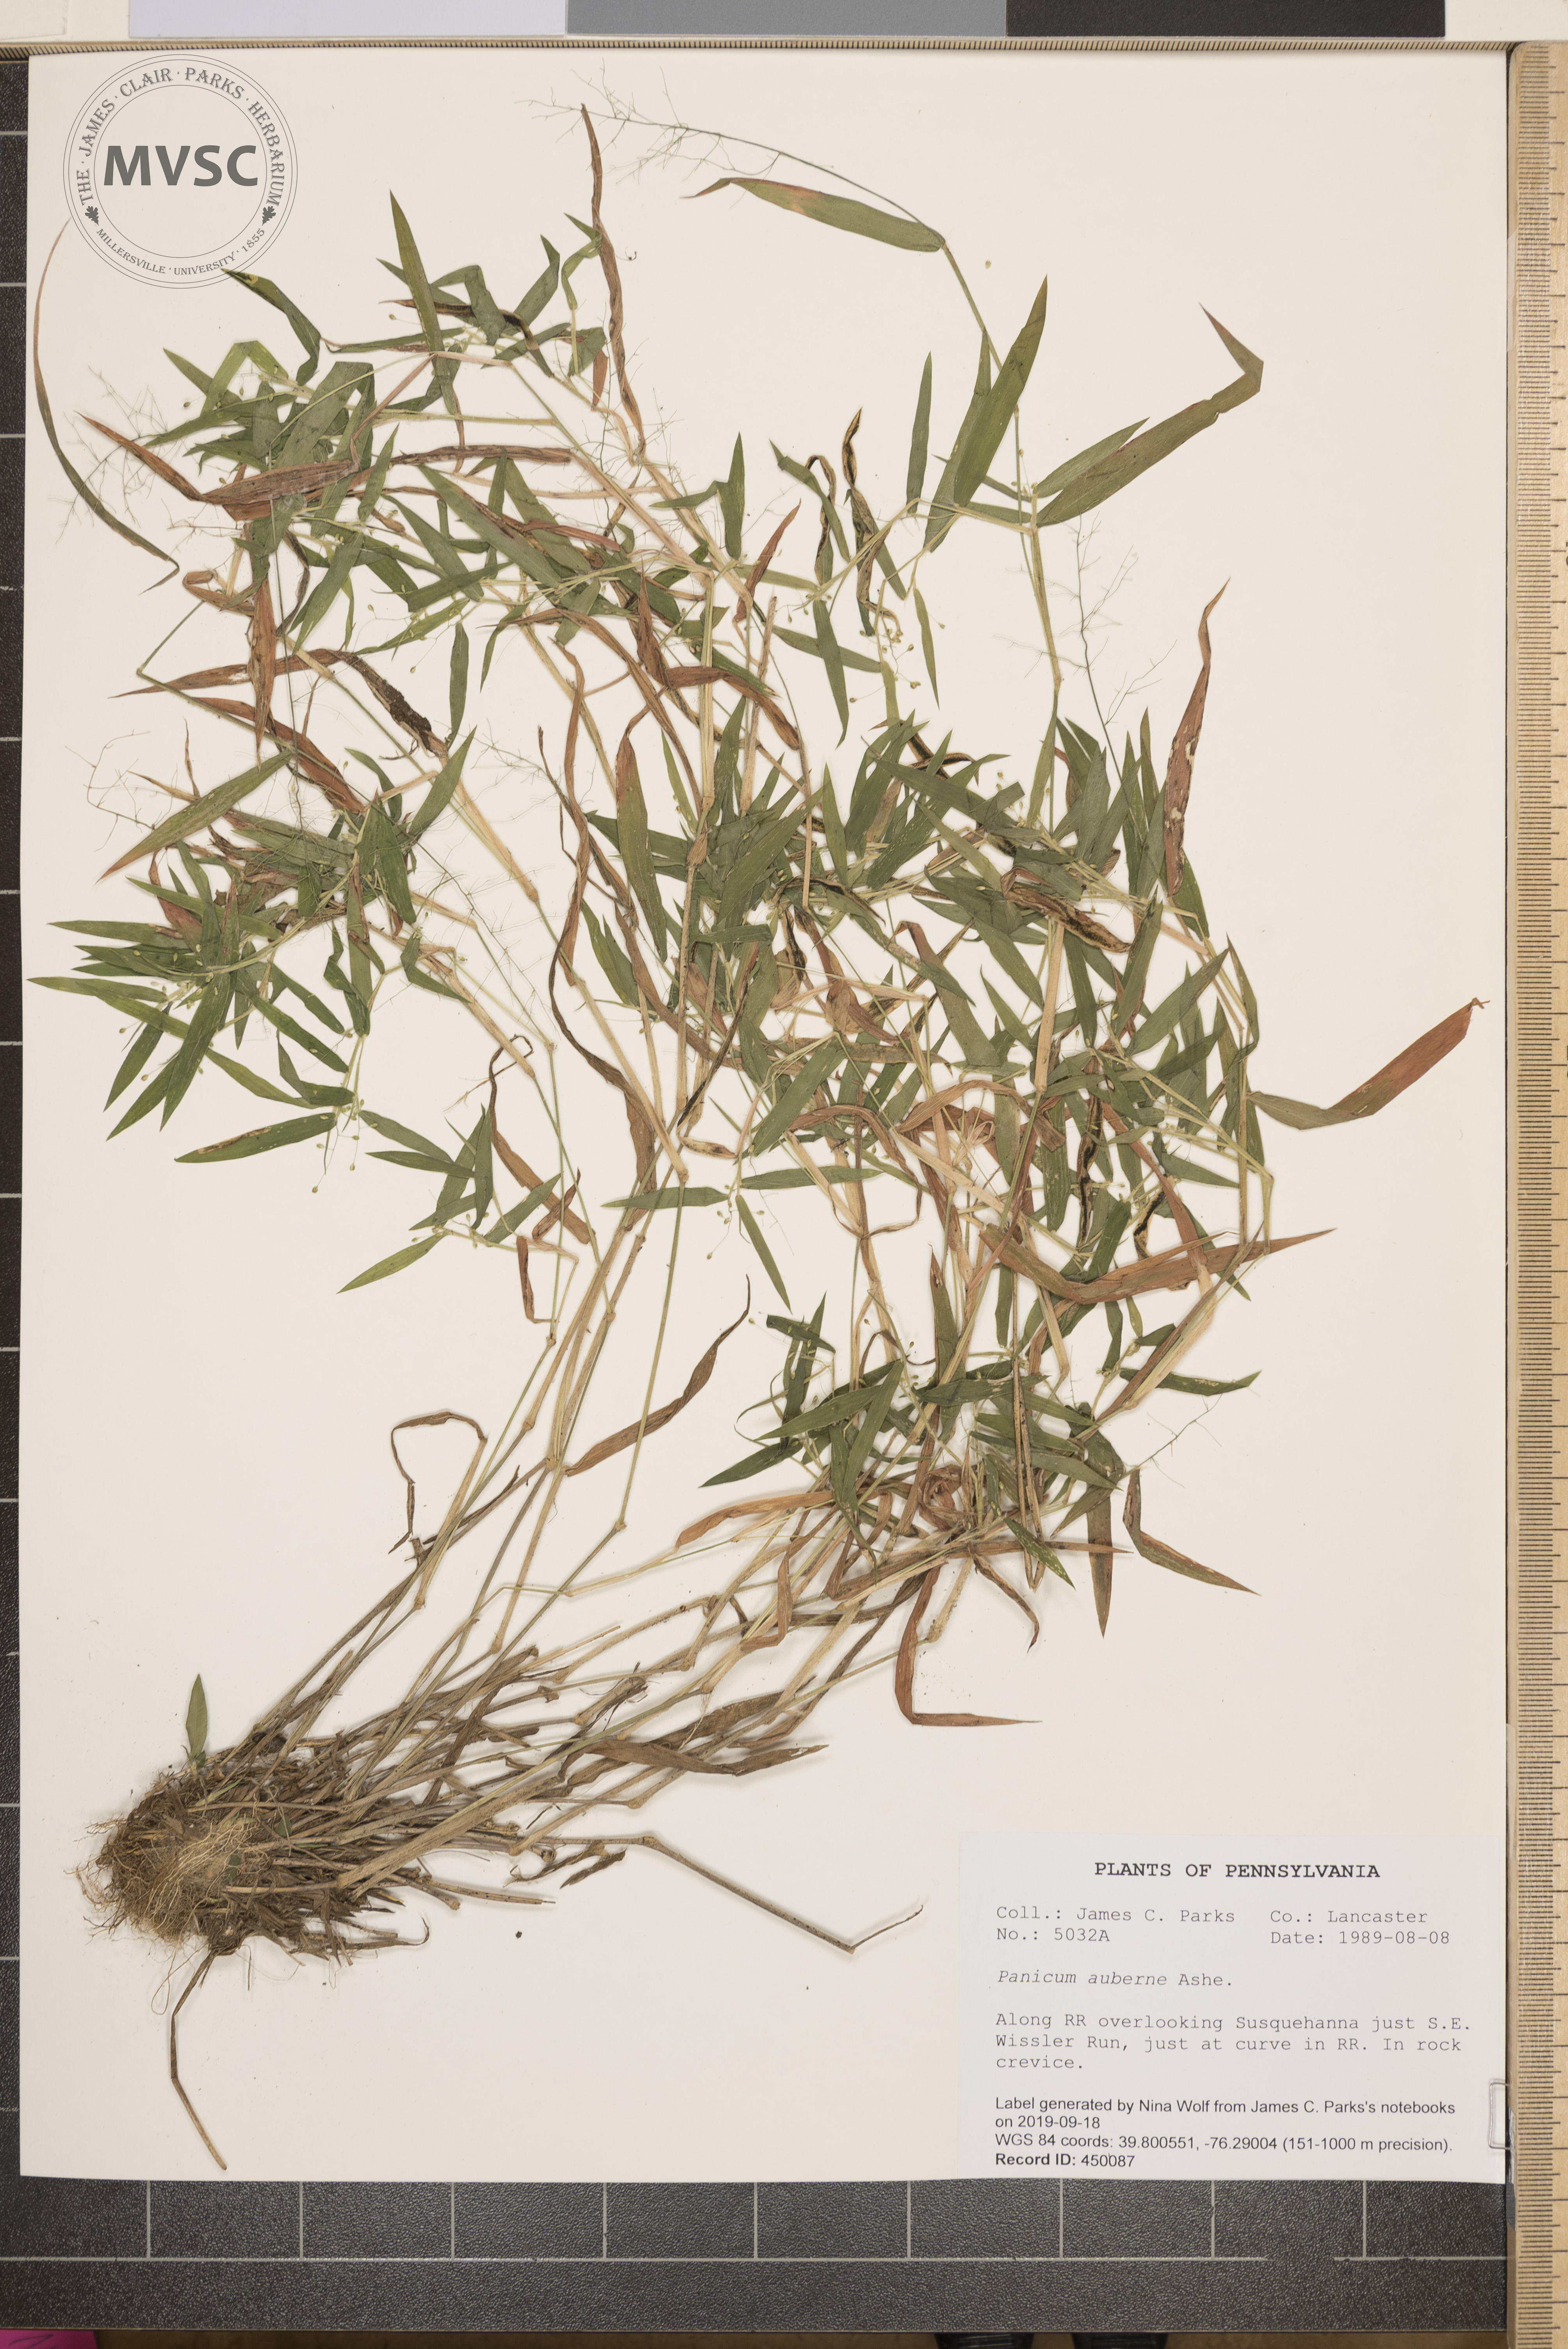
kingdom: Plantae
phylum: Tracheophyta
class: Liliopsida
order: Poales
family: Poaceae
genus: Dichanthelium
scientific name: Dichanthelium acuminatum
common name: Hairy panic grass
